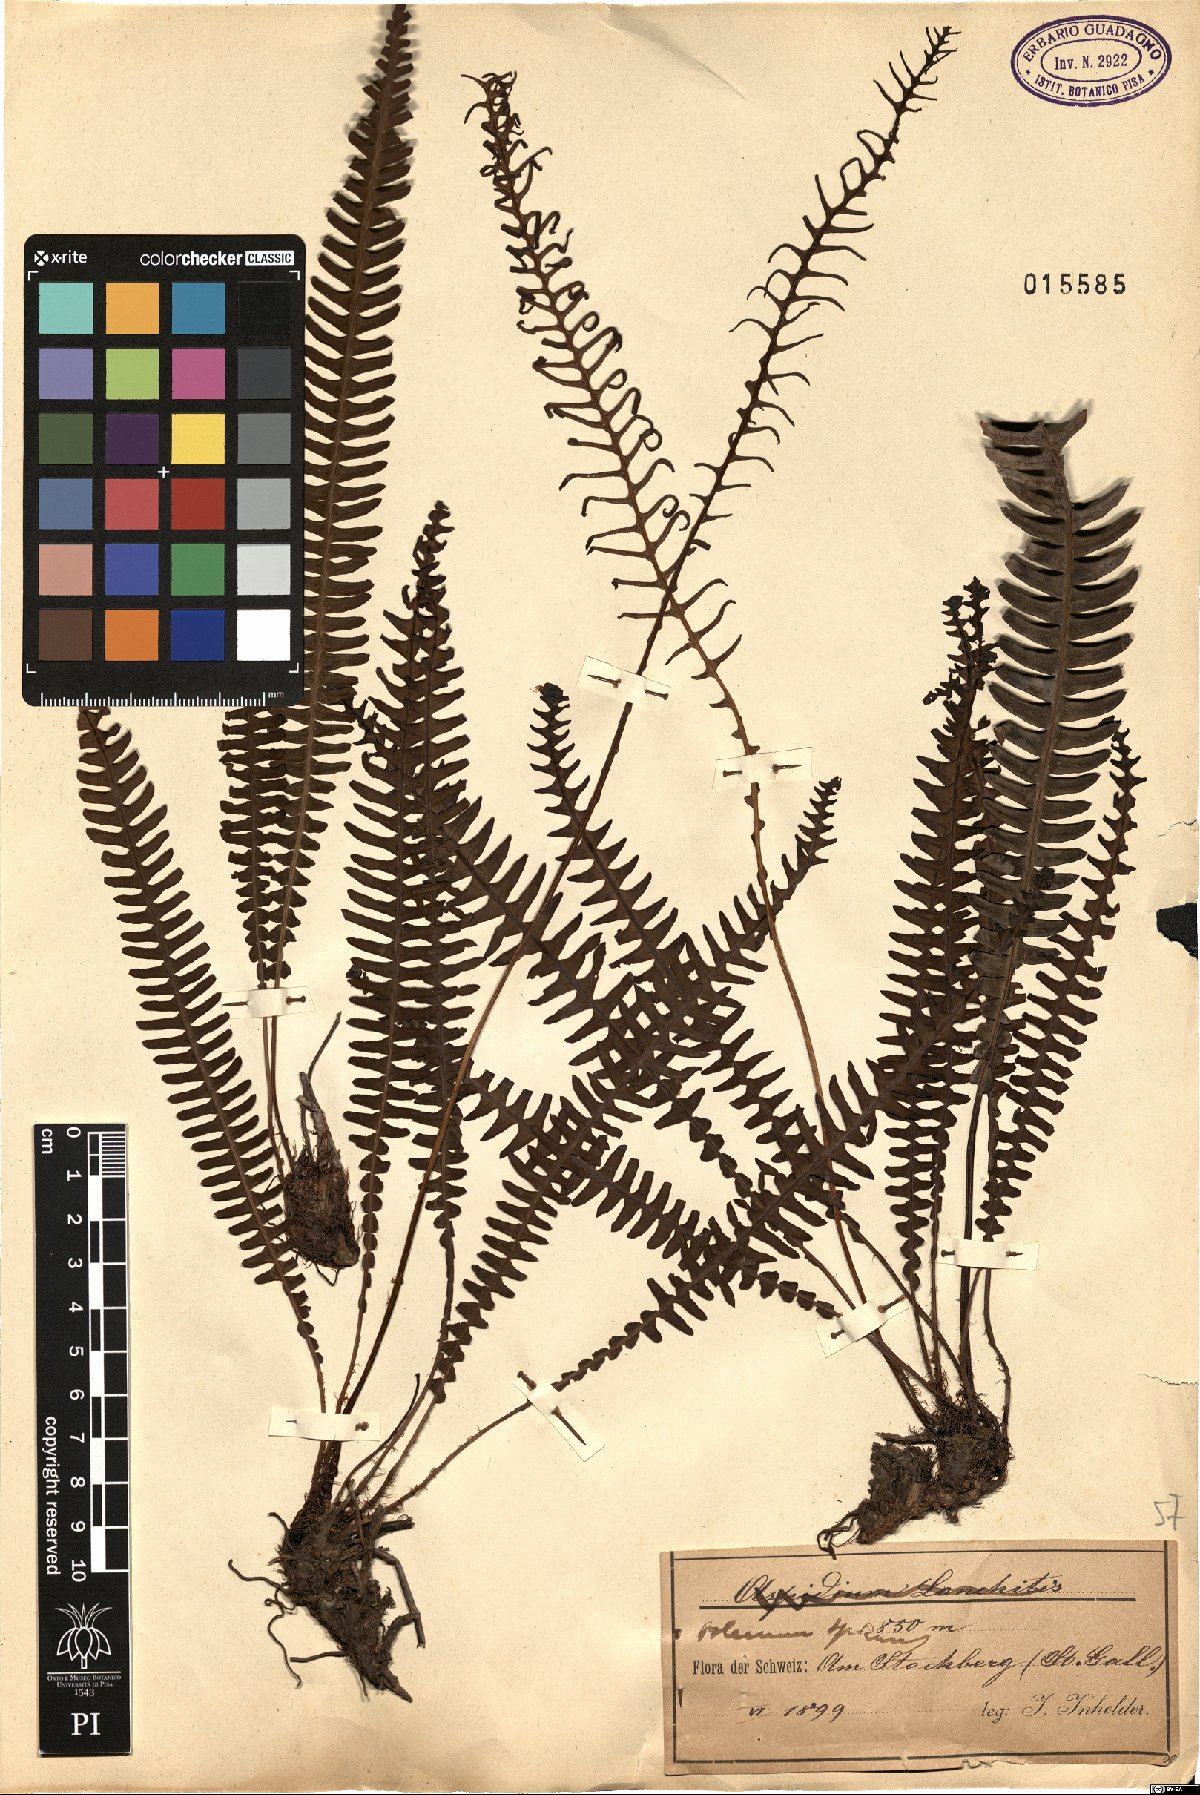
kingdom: Plantae
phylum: Tracheophyta
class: Polypodiopsida
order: Polypodiales
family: Blechnaceae
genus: Struthiopteris
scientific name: Struthiopteris spicant
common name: Deer fern
